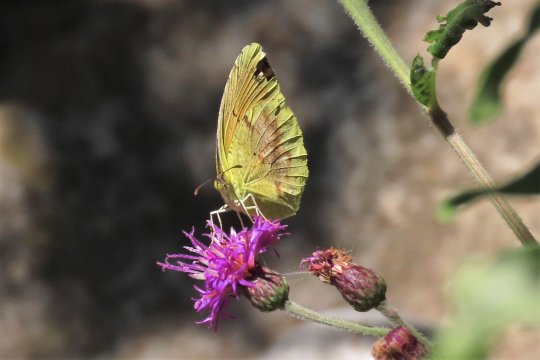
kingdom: Animalia
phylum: Arthropoda
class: Insecta
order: Lepidoptera
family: Pieridae
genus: Abaeis
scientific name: Abaeis nicippe
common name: Sleepy Orange
